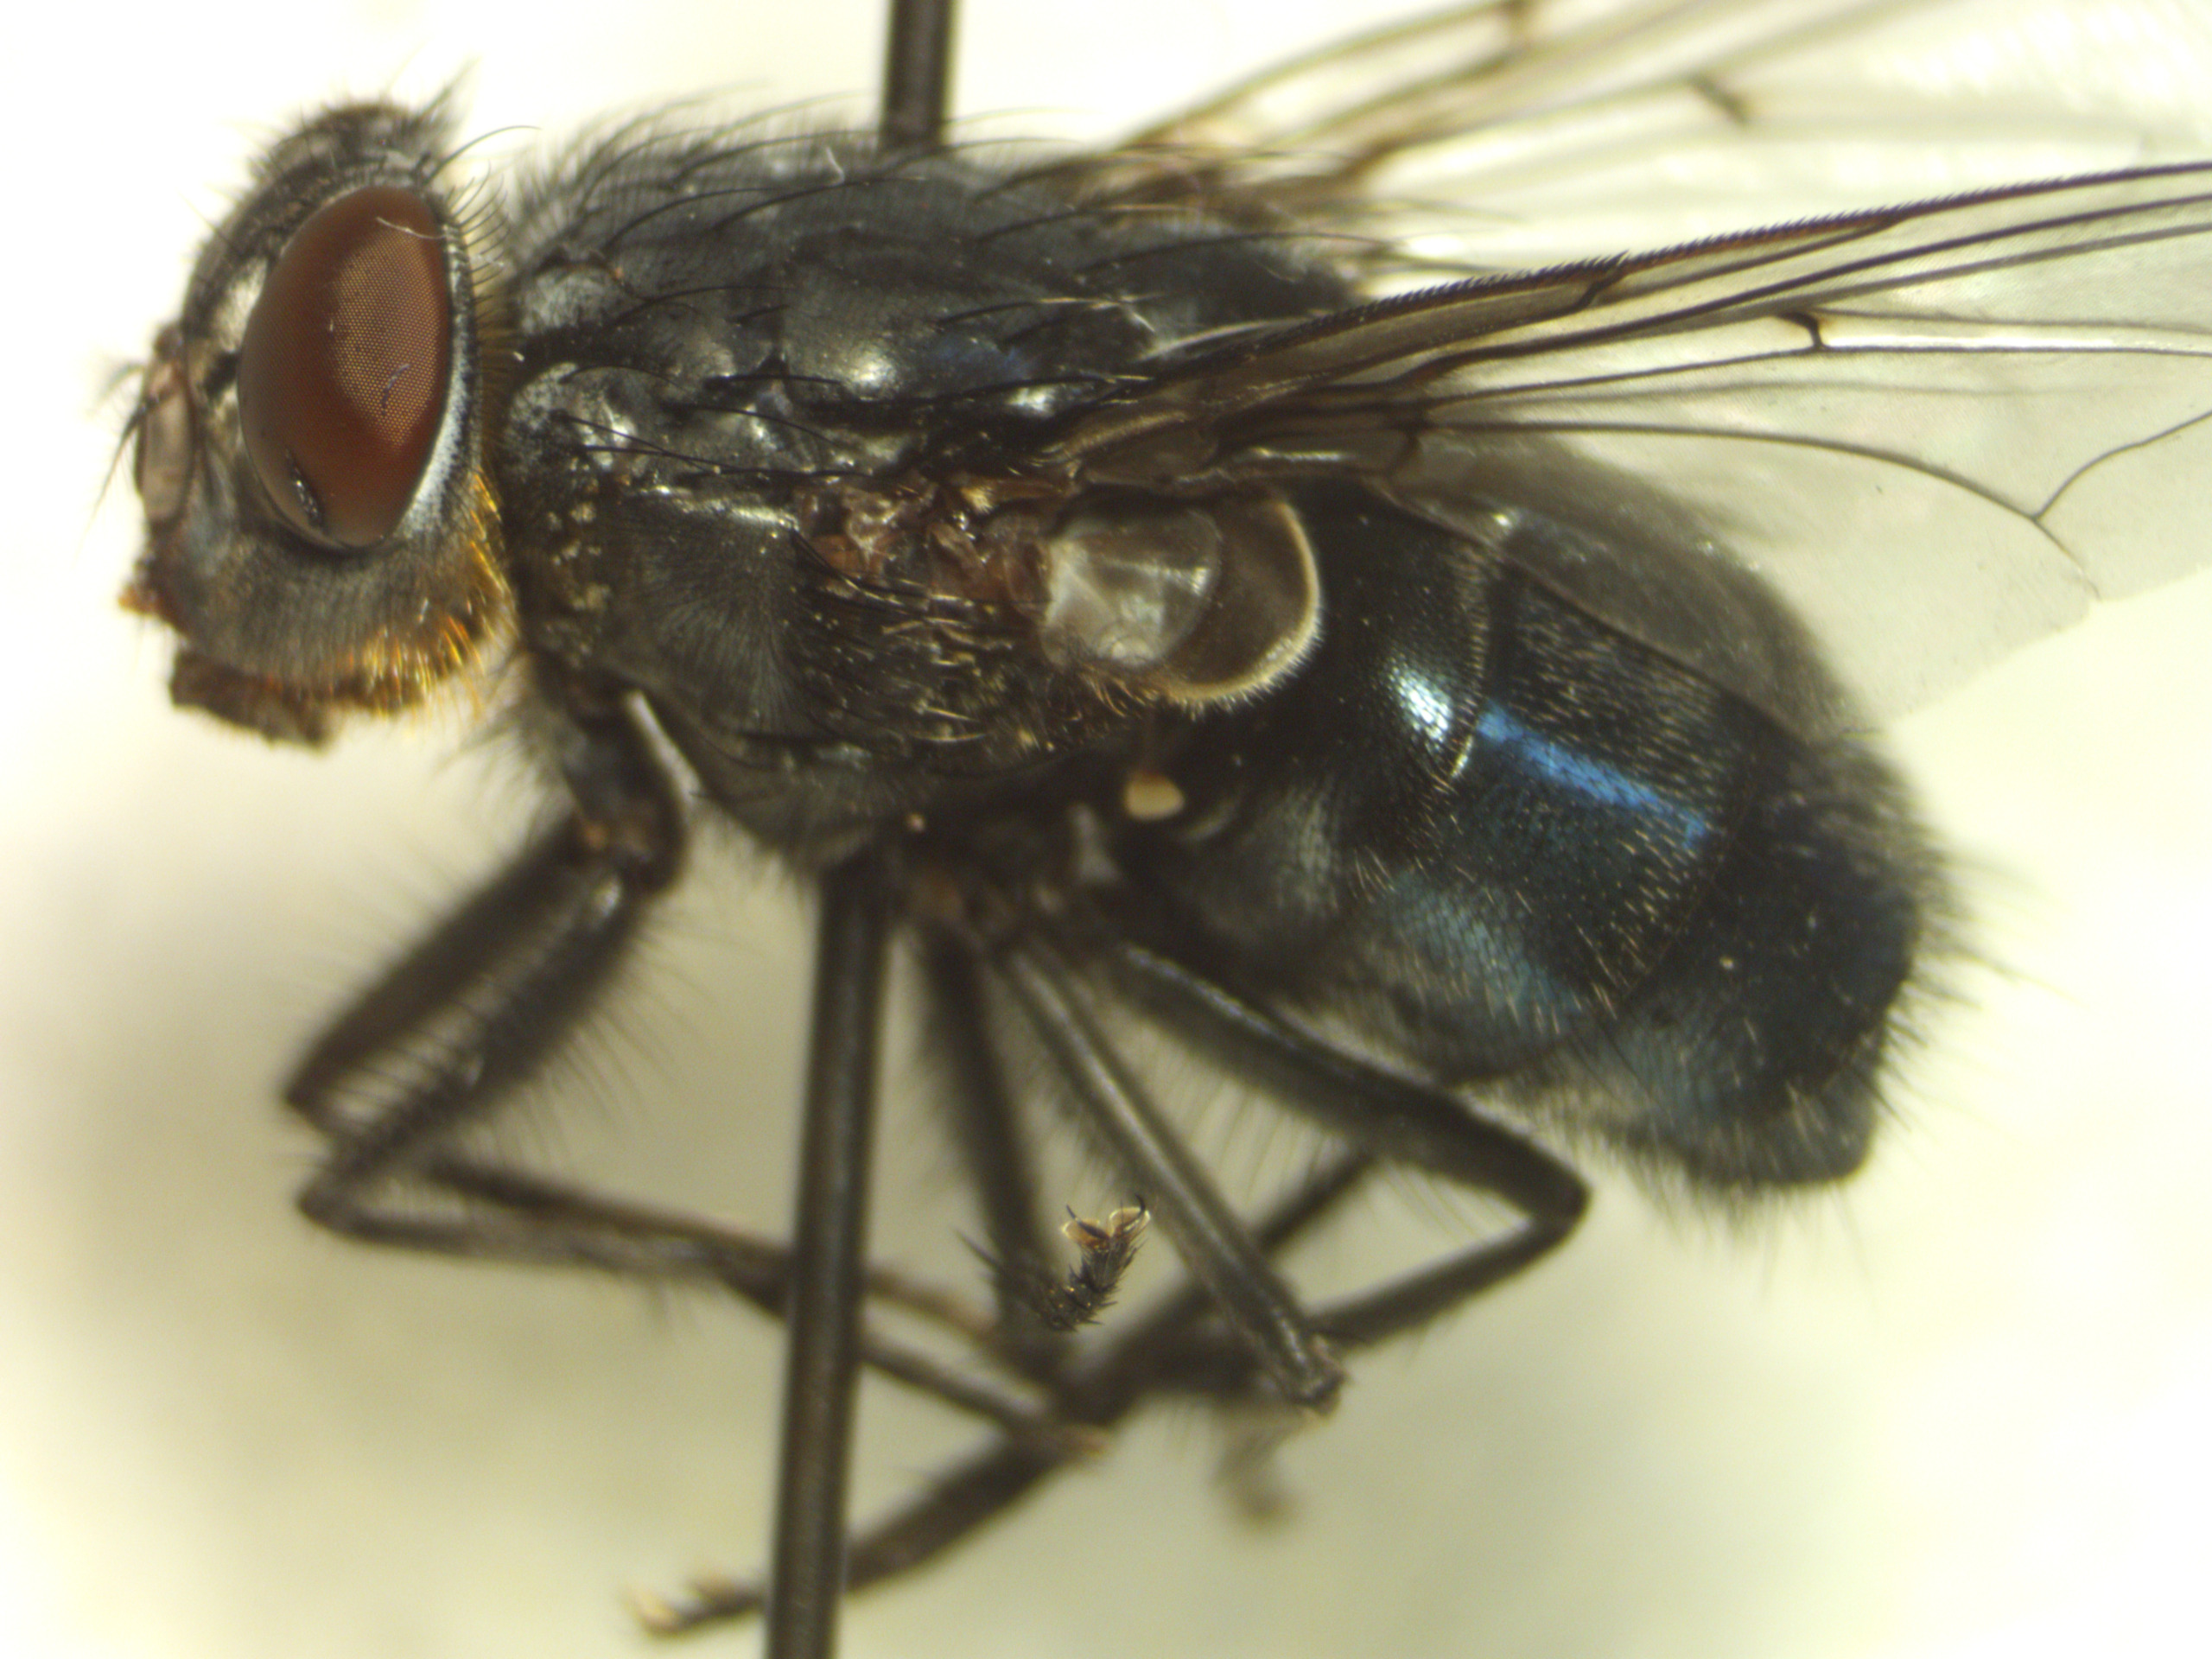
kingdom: Animalia
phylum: Arthropoda
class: Insecta
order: Diptera
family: Calliphoridae
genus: Calliphora
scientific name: Calliphora vomitoria
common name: Almindelig spyflue
